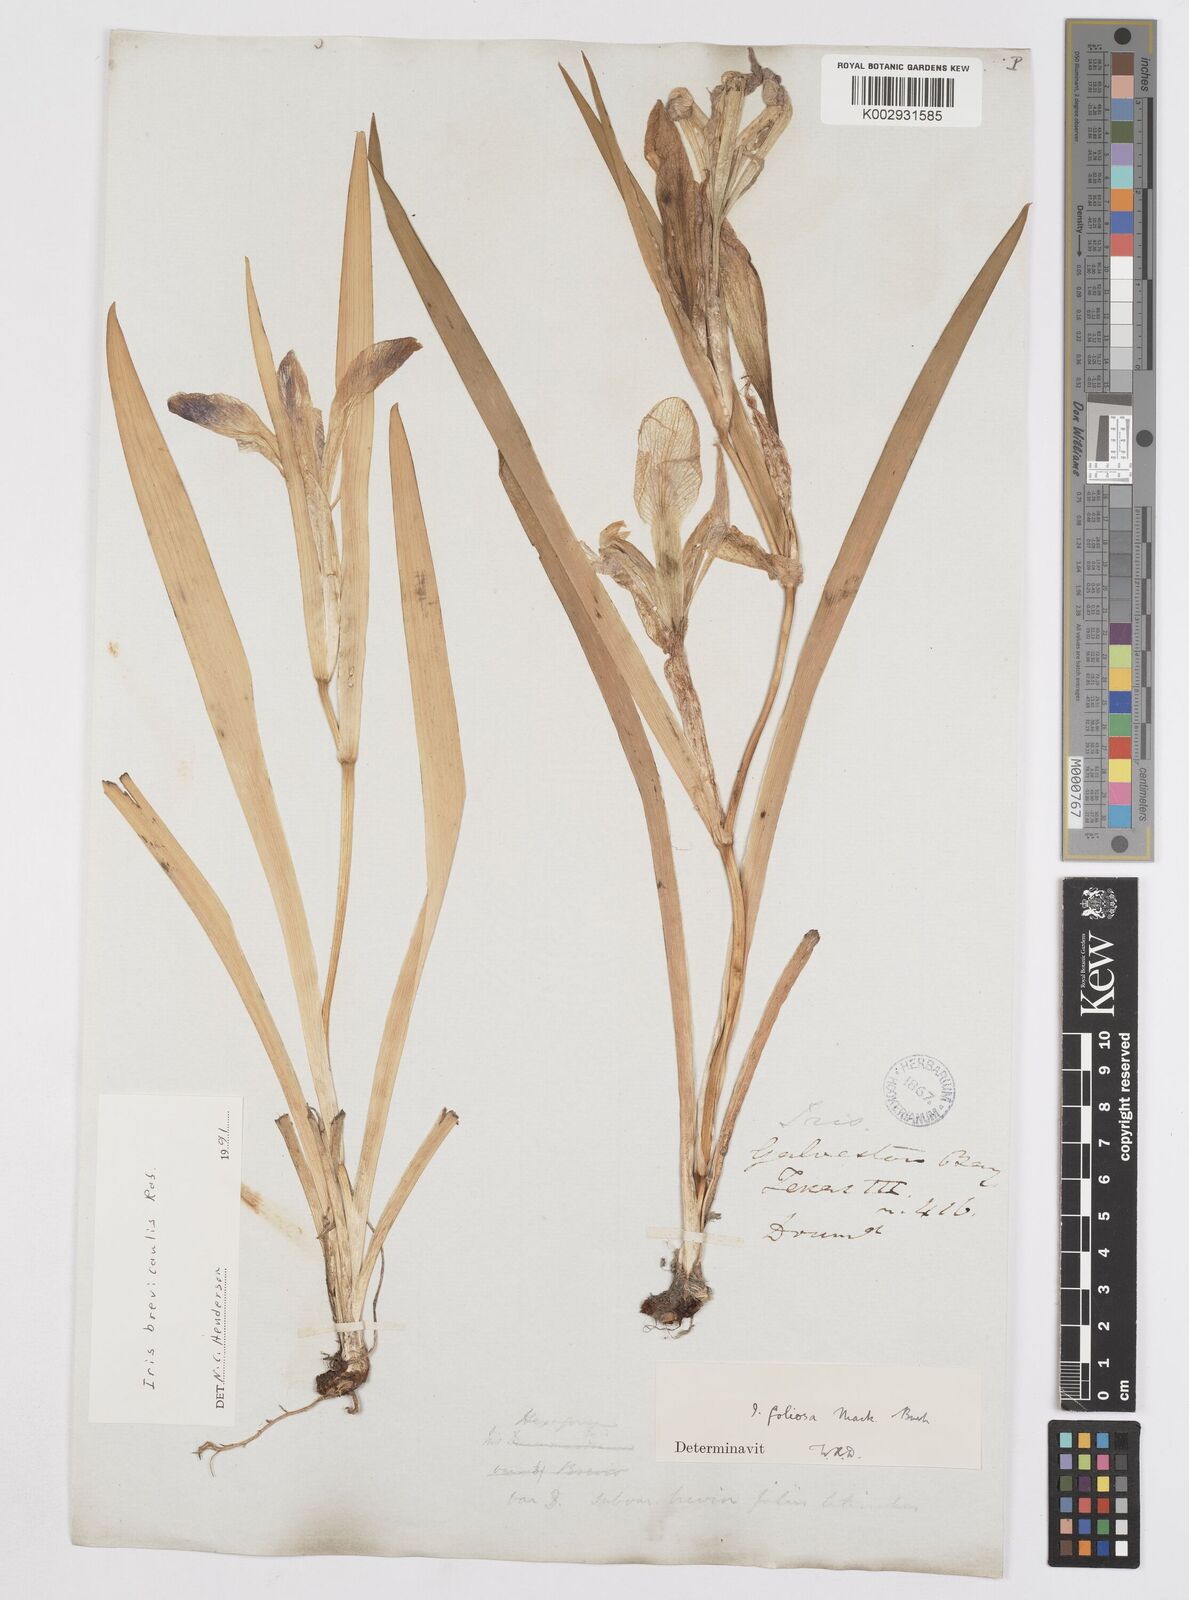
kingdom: Plantae
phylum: Tracheophyta
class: Liliopsida
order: Asparagales
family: Iridaceae
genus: Iris
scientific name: Iris brevicaulis
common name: Zigzag iris
